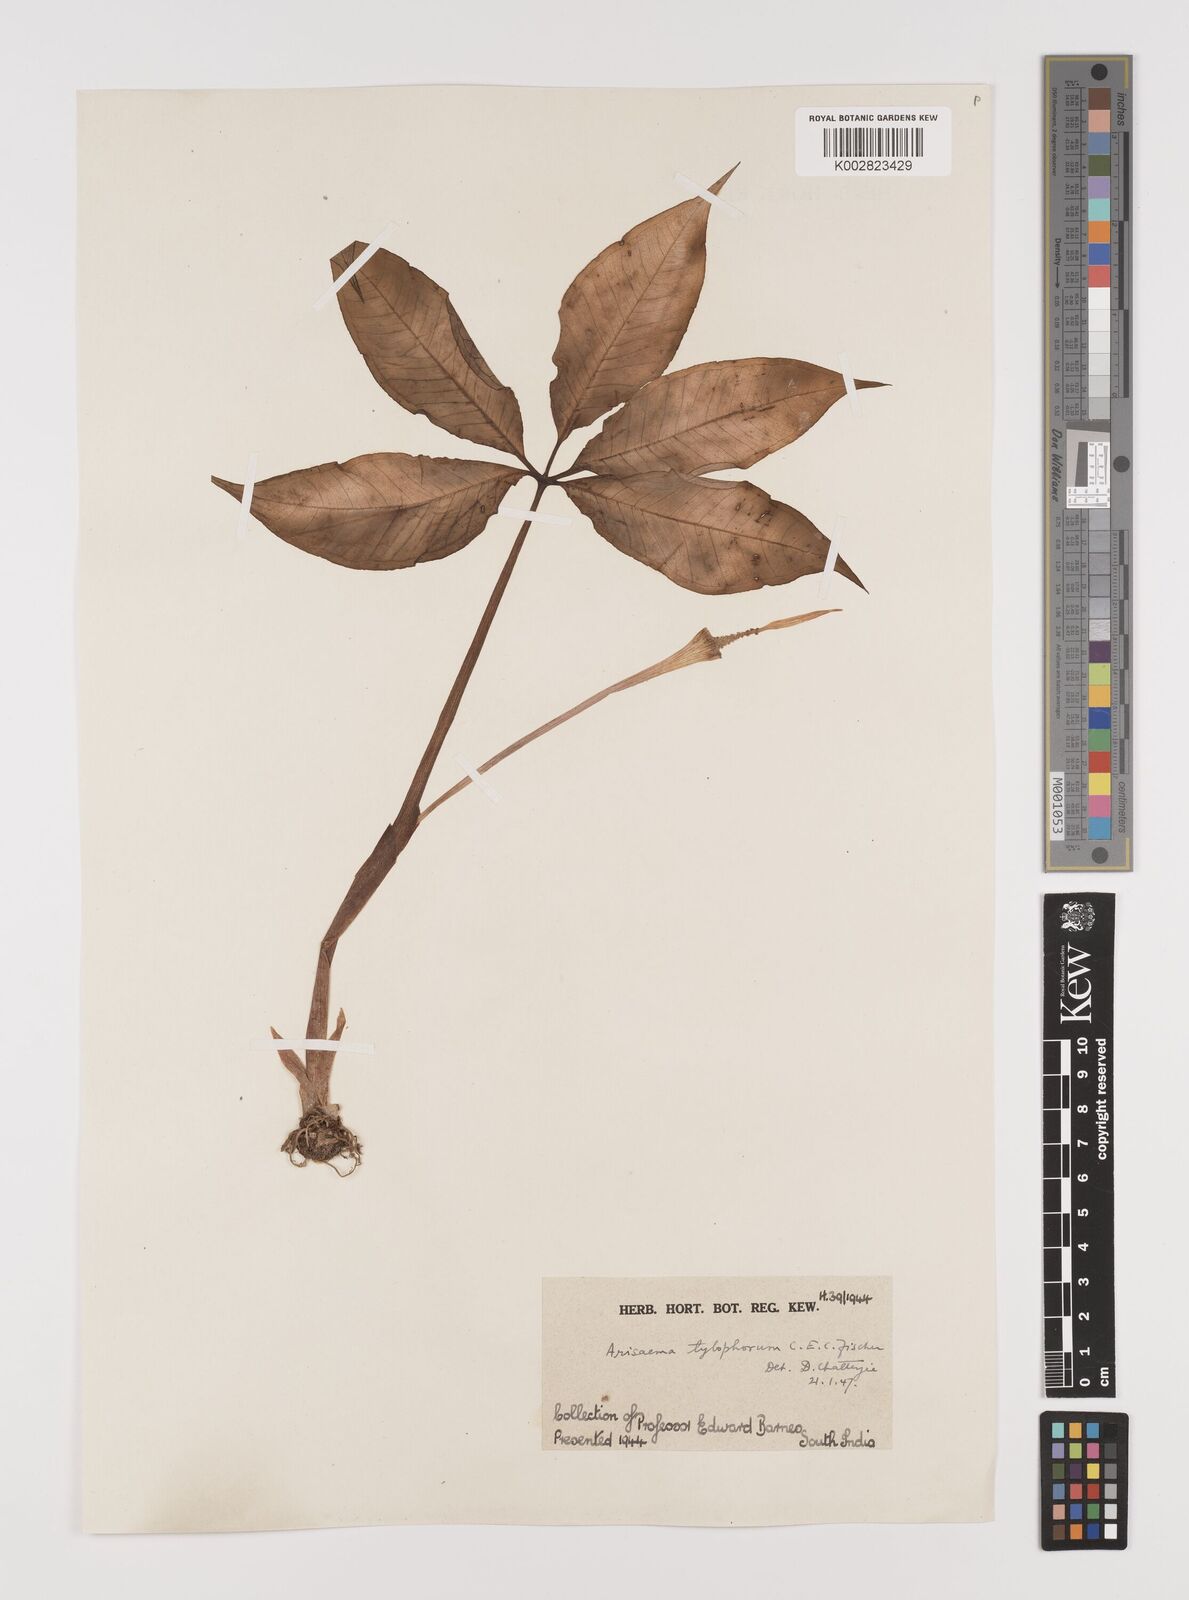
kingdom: Plantae
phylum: Tracheophyta
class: Liliopsida
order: Alismatales
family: Araceae
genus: Arisaema
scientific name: Arisaema barnesii
